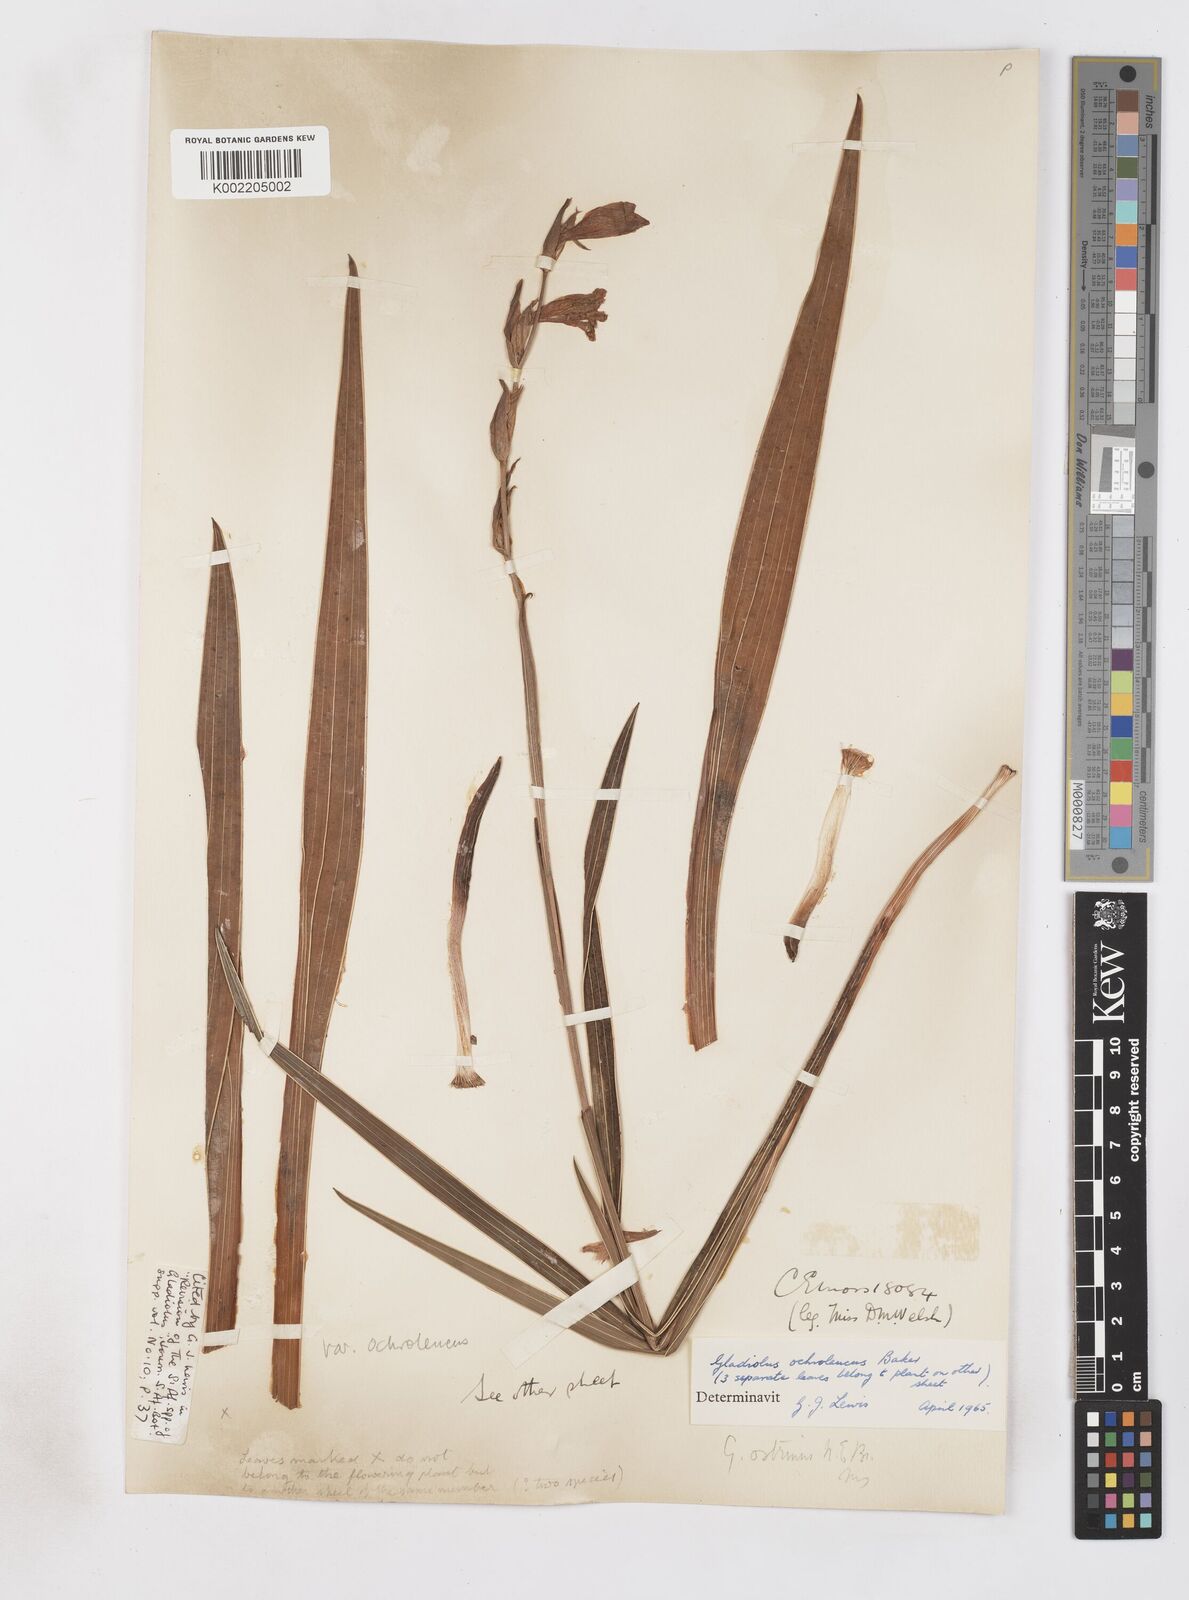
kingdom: Plantae
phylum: Tracheophyta
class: Liliopsida
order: Asparagales
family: Iridaceae
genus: Gladiolus
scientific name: Gladiolus ochroleucus
